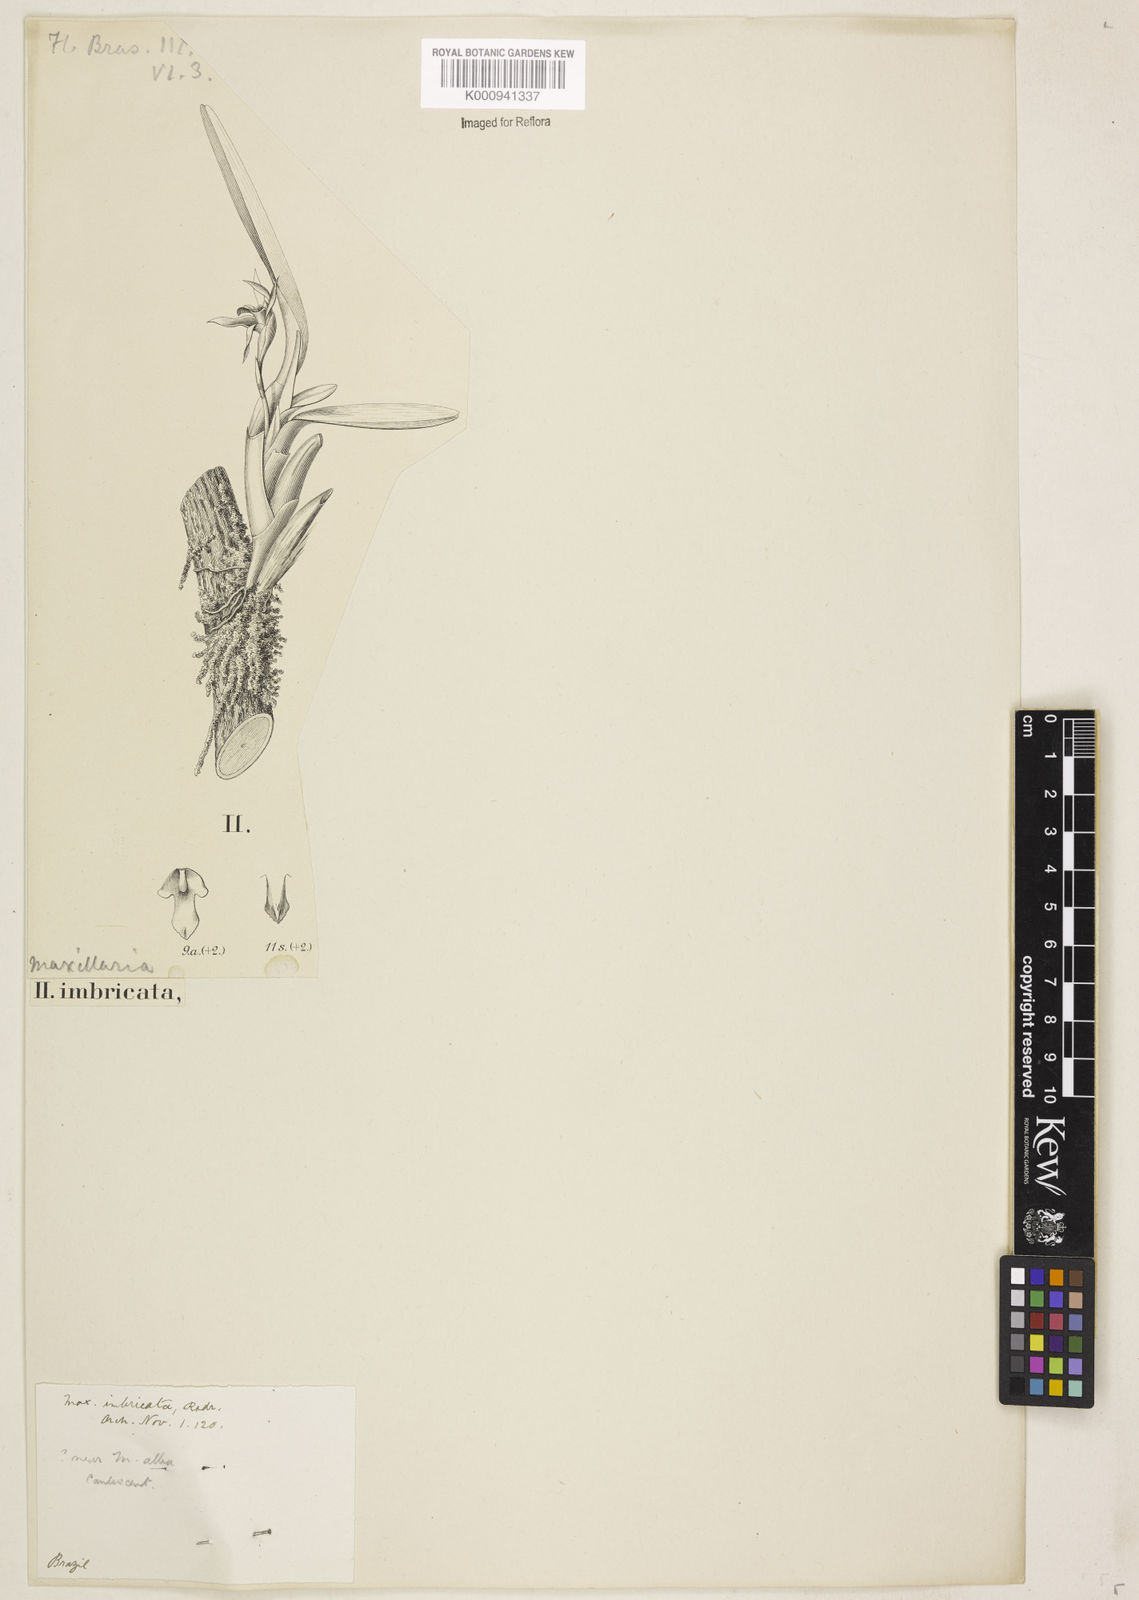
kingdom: Plantae
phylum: Tracheophyta
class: Liliopsida
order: Asparagales
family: Orchidaceae
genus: Maxillaria
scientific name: Maxillaria imbricata
